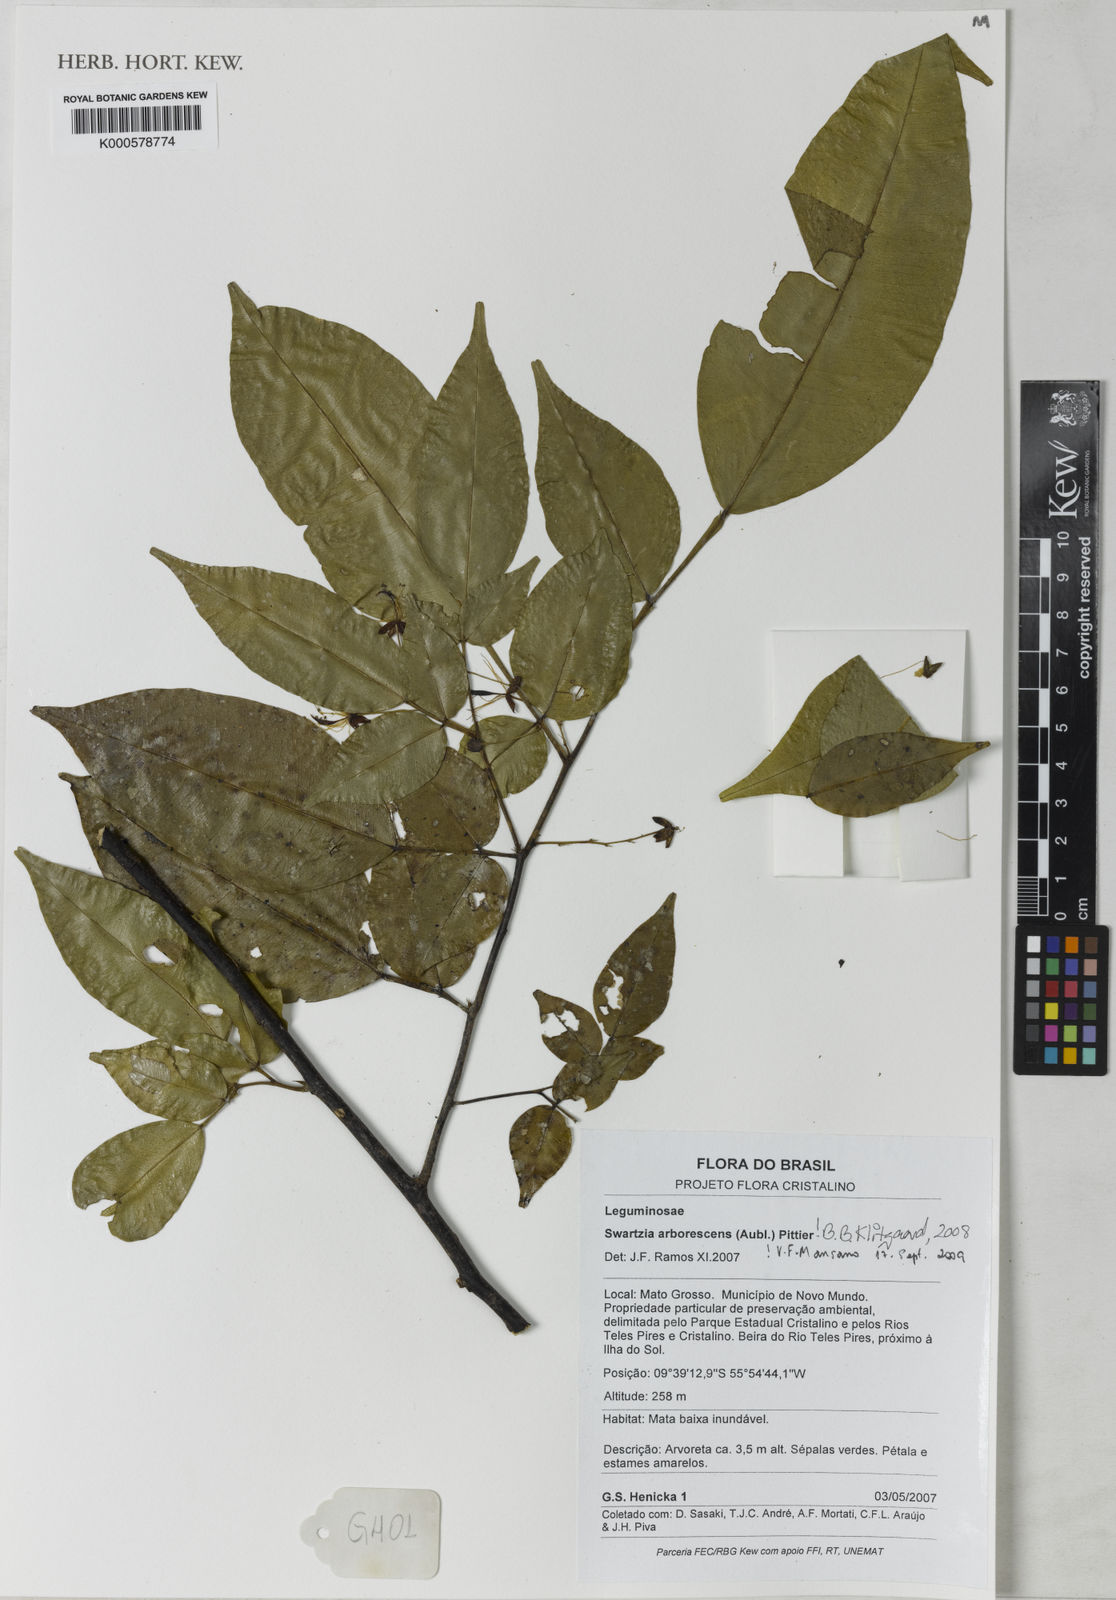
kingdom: Plantae
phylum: Tracheophyta
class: Magnoliopsida
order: Fabales
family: Fabaceae
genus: Swartzia
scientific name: Swartzia arborescens
